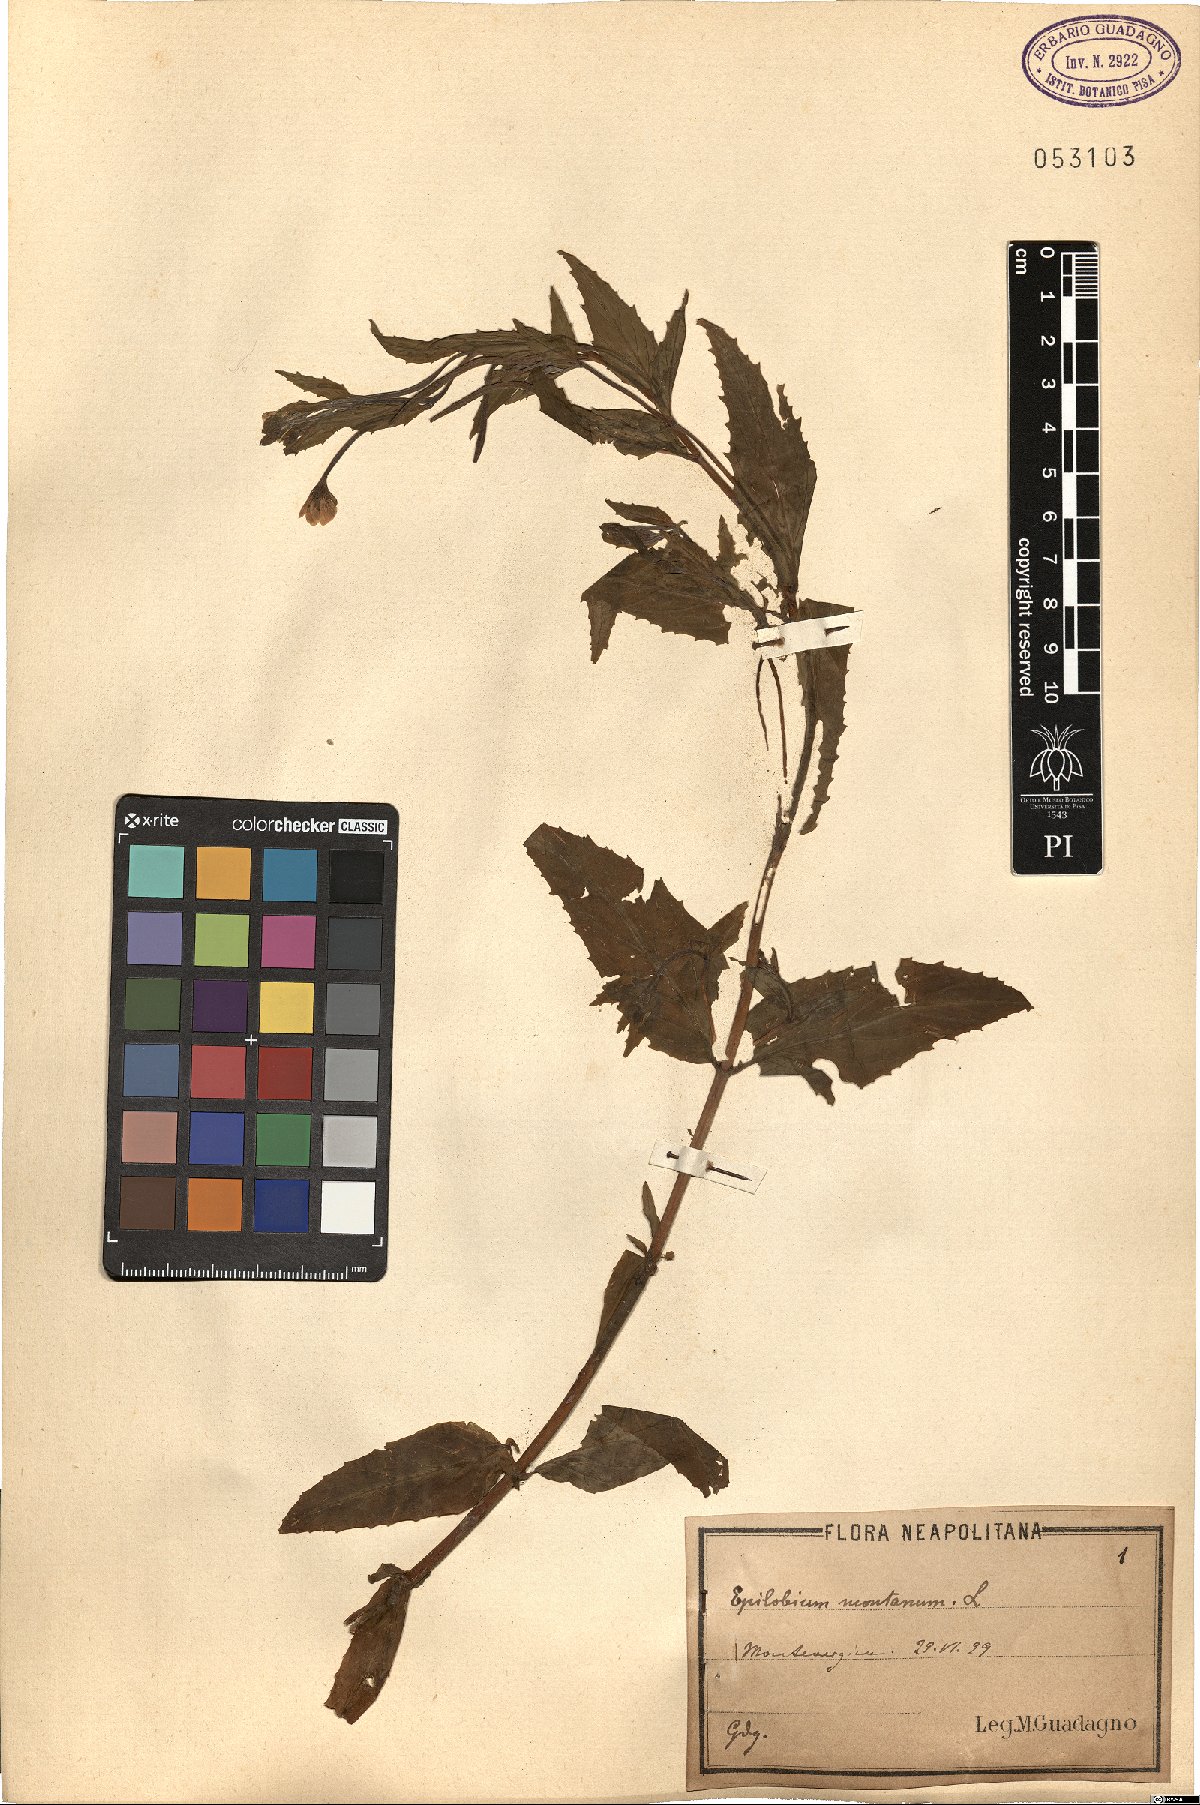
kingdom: Plantae
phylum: Tracheophyta
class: Magnoliopsida
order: Myrtales
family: Onagraceae
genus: Epilobium
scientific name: Epilobium montanum
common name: Broad-leaved willowherb
